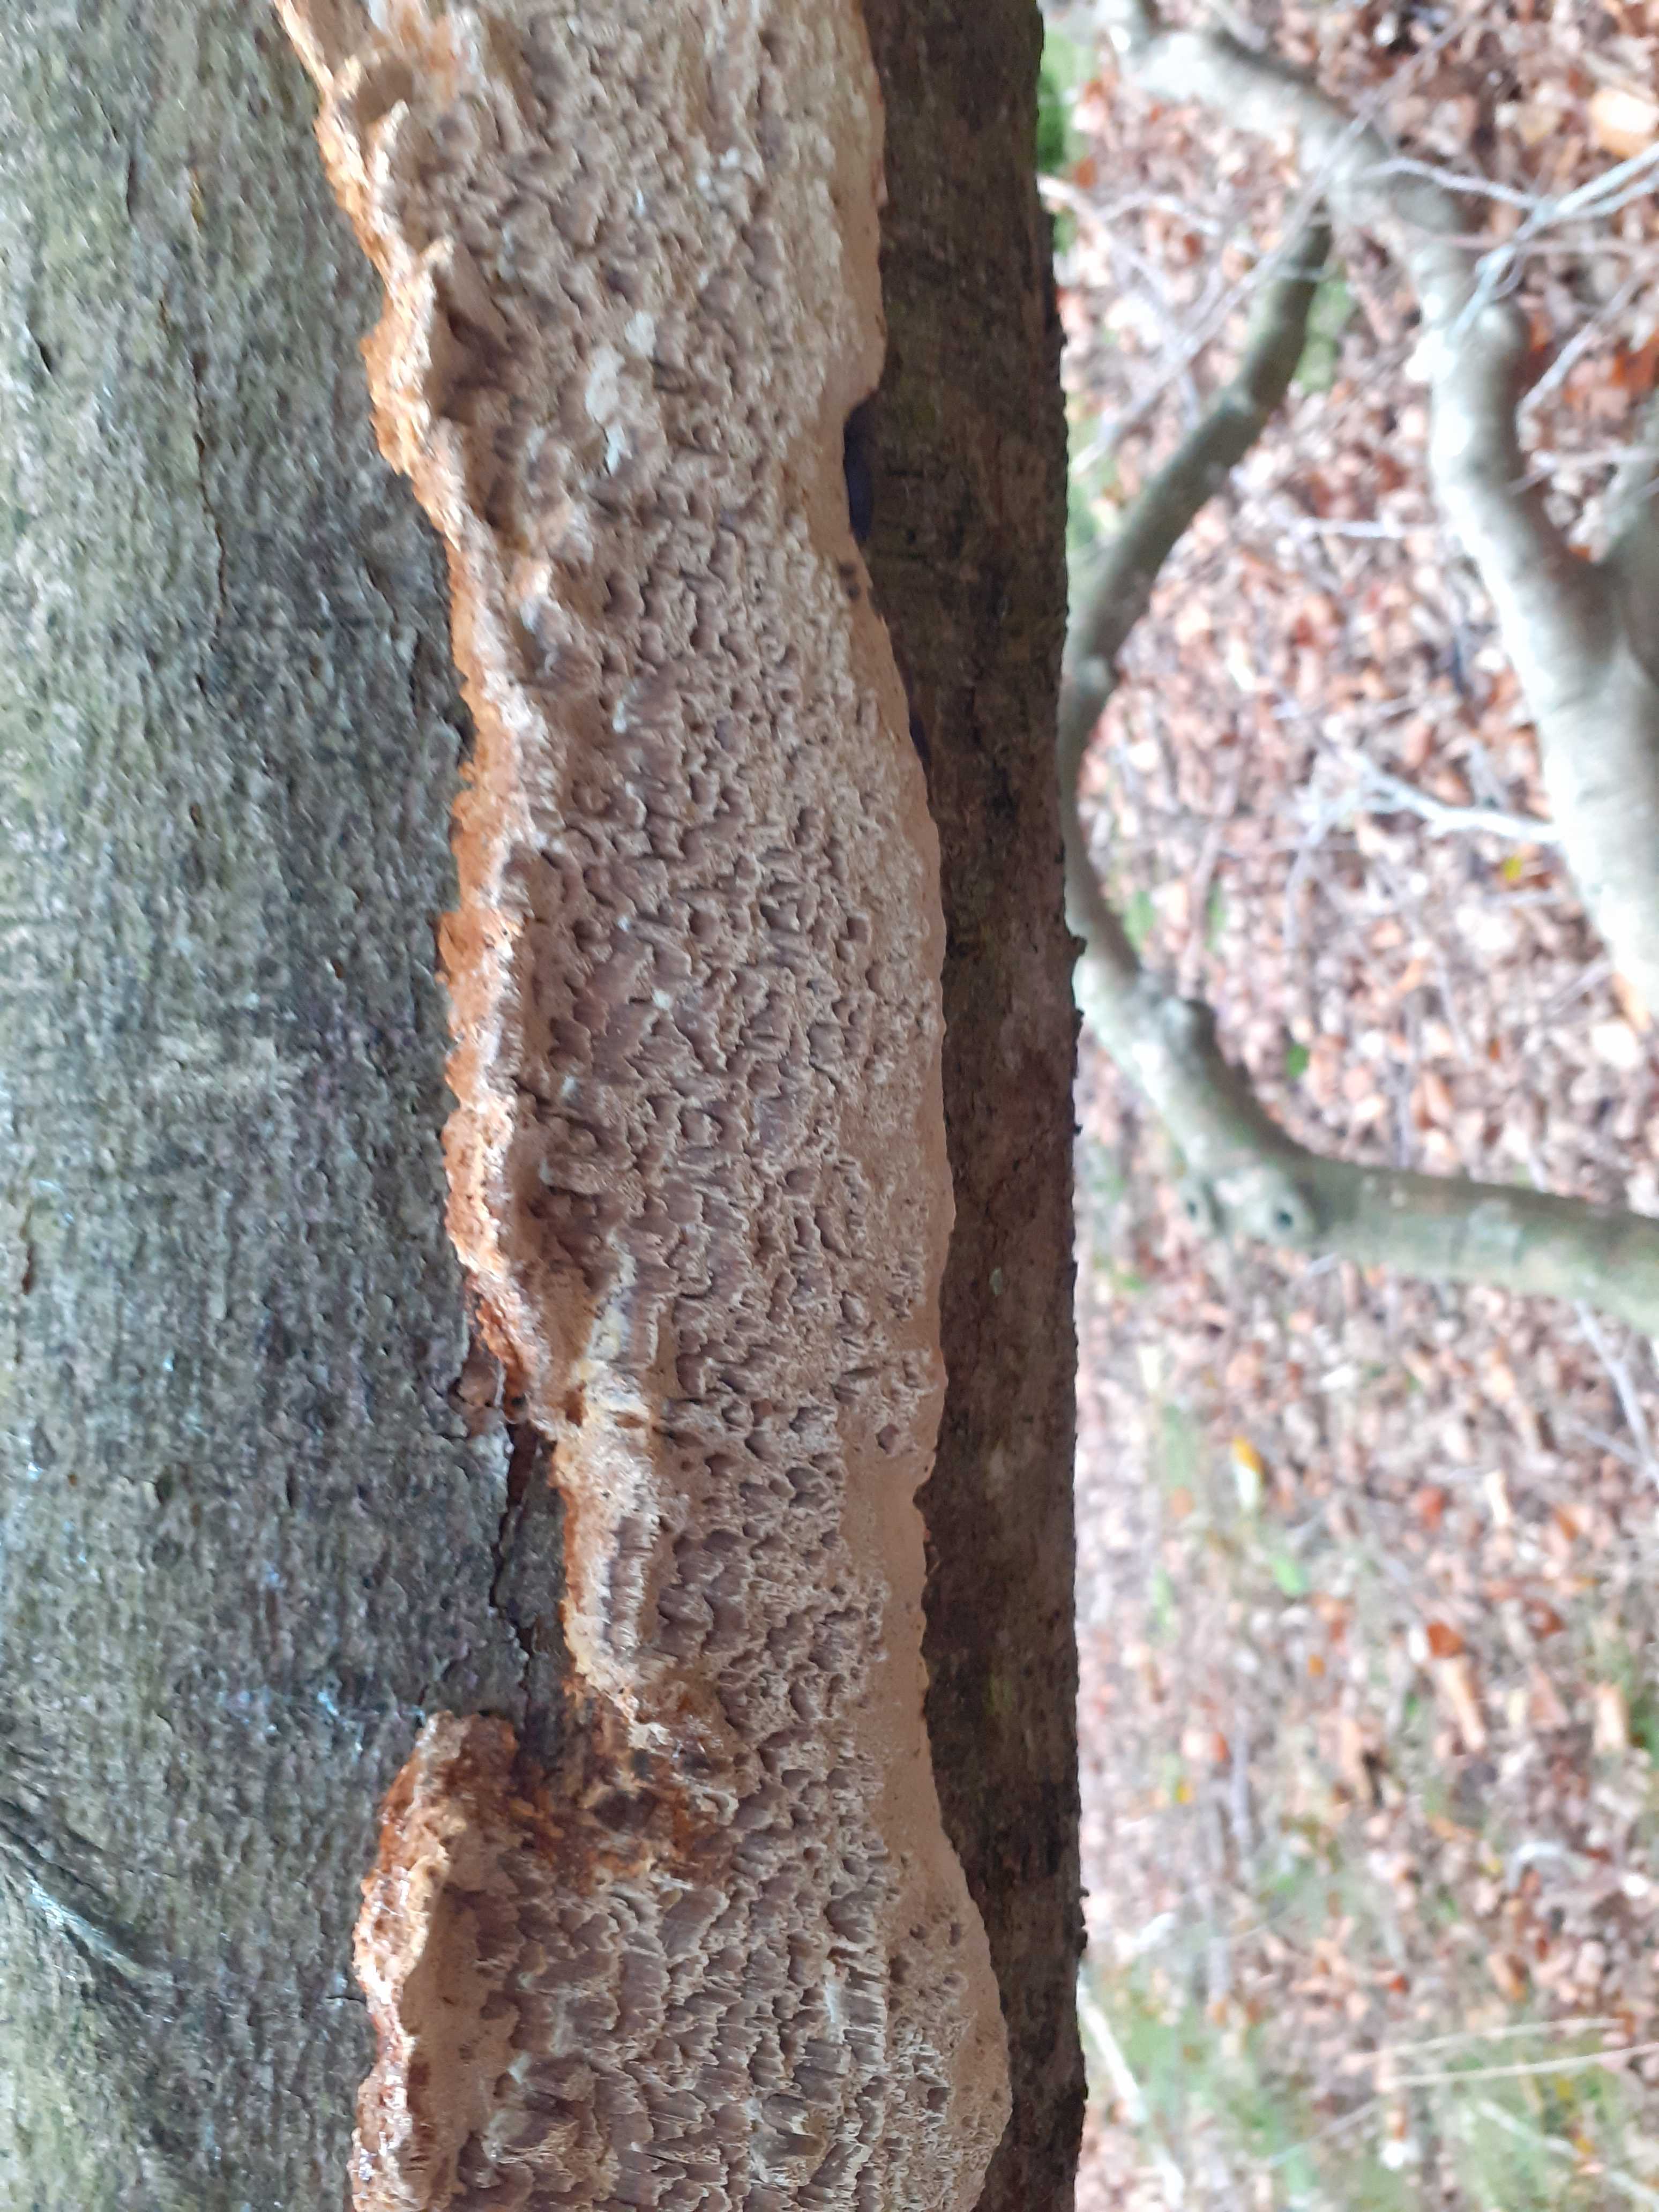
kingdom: Fungi
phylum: Basidiomycota
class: Agaricomycetes
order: Hymenochaetales
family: Hymenochaetaceae
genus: Mensularia
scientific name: Mensularia nodulosa
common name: bøge-spejlporesvamp
